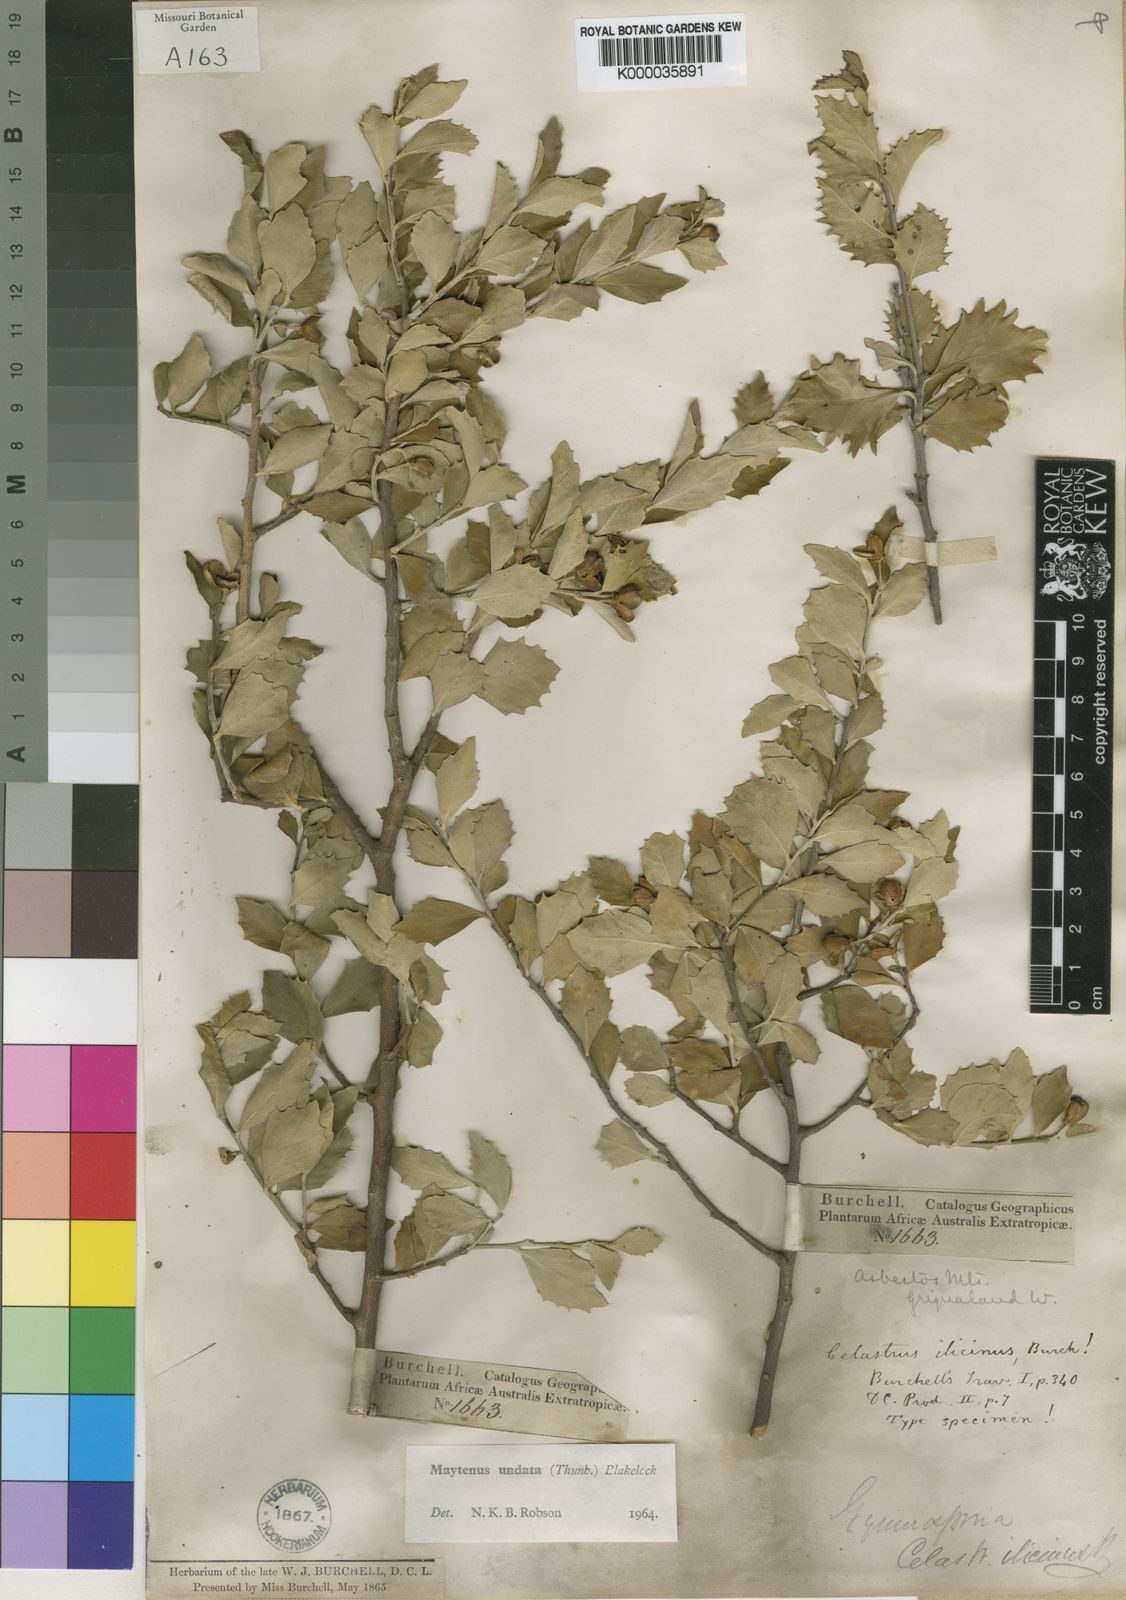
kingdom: Plantae
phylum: Tracheophyta
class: Magnoliopsida
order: Celastrales
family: Celastraceae
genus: Gymnosporia
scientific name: Gymnosporia undata
